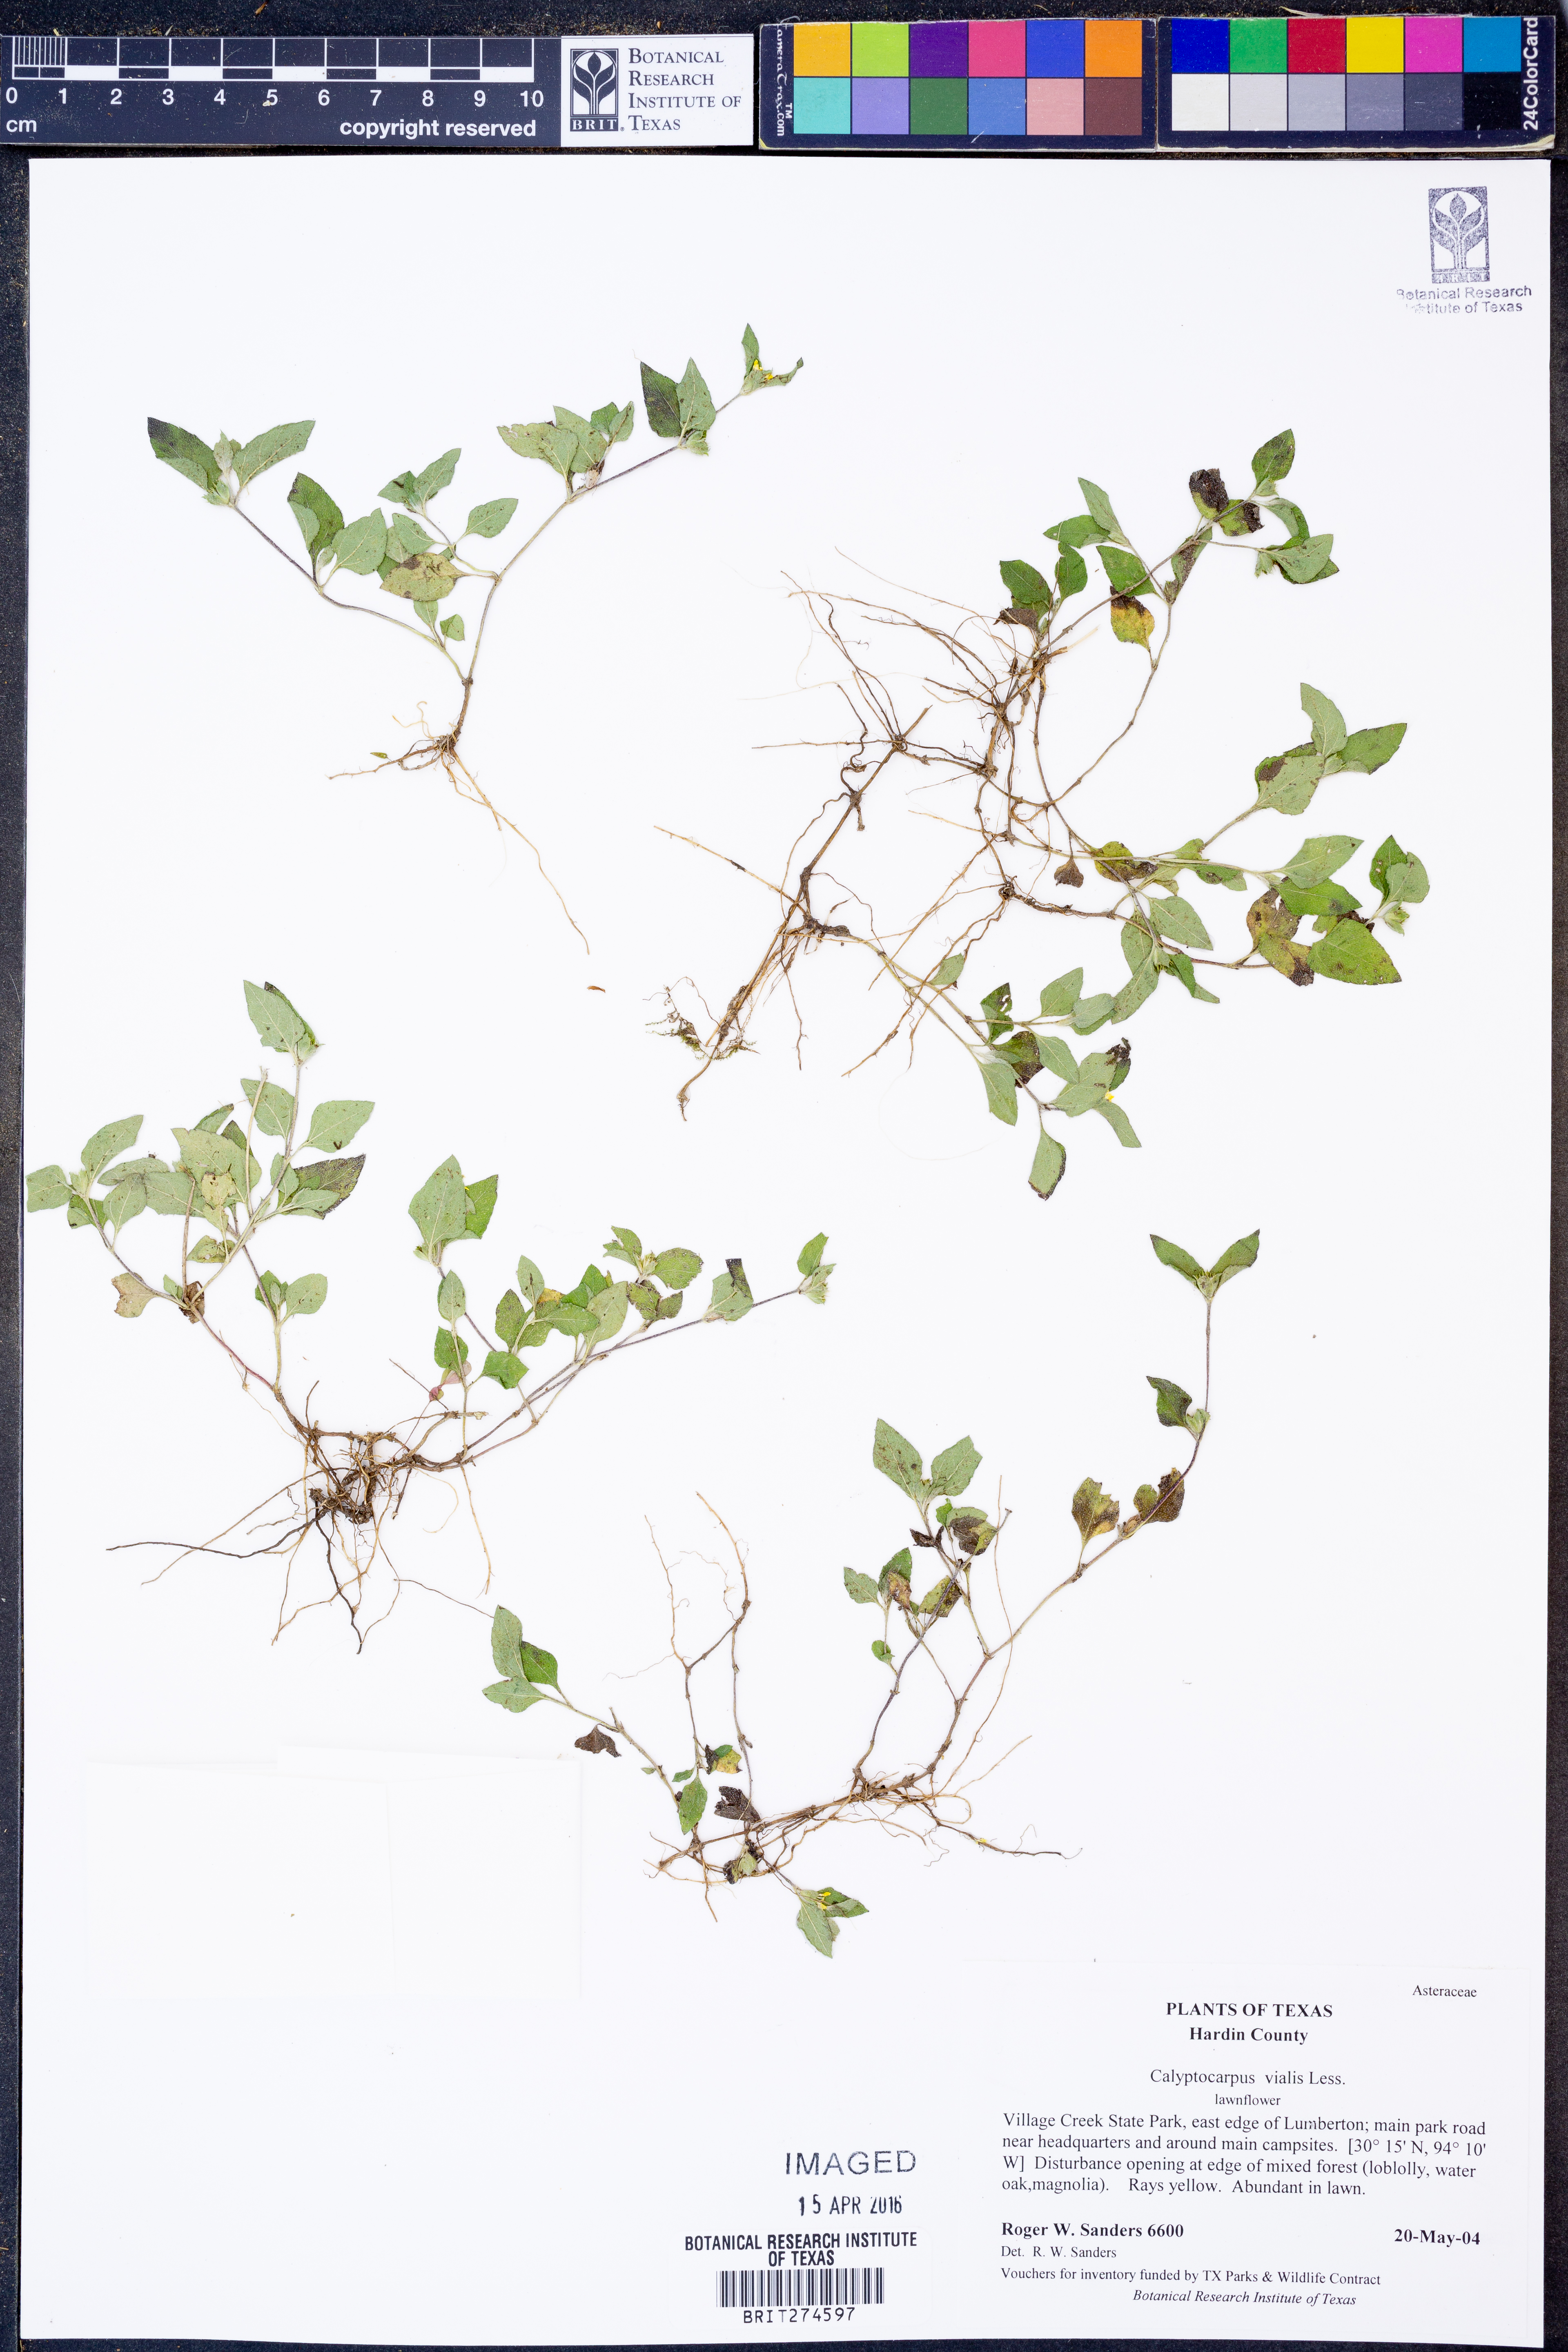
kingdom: Plantae
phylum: Tracheophyta
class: Magnoliopsida
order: Asterales
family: Asteraceae
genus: Calyptocarpus
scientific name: Calyptocarpus vialis
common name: Straggler daisy
